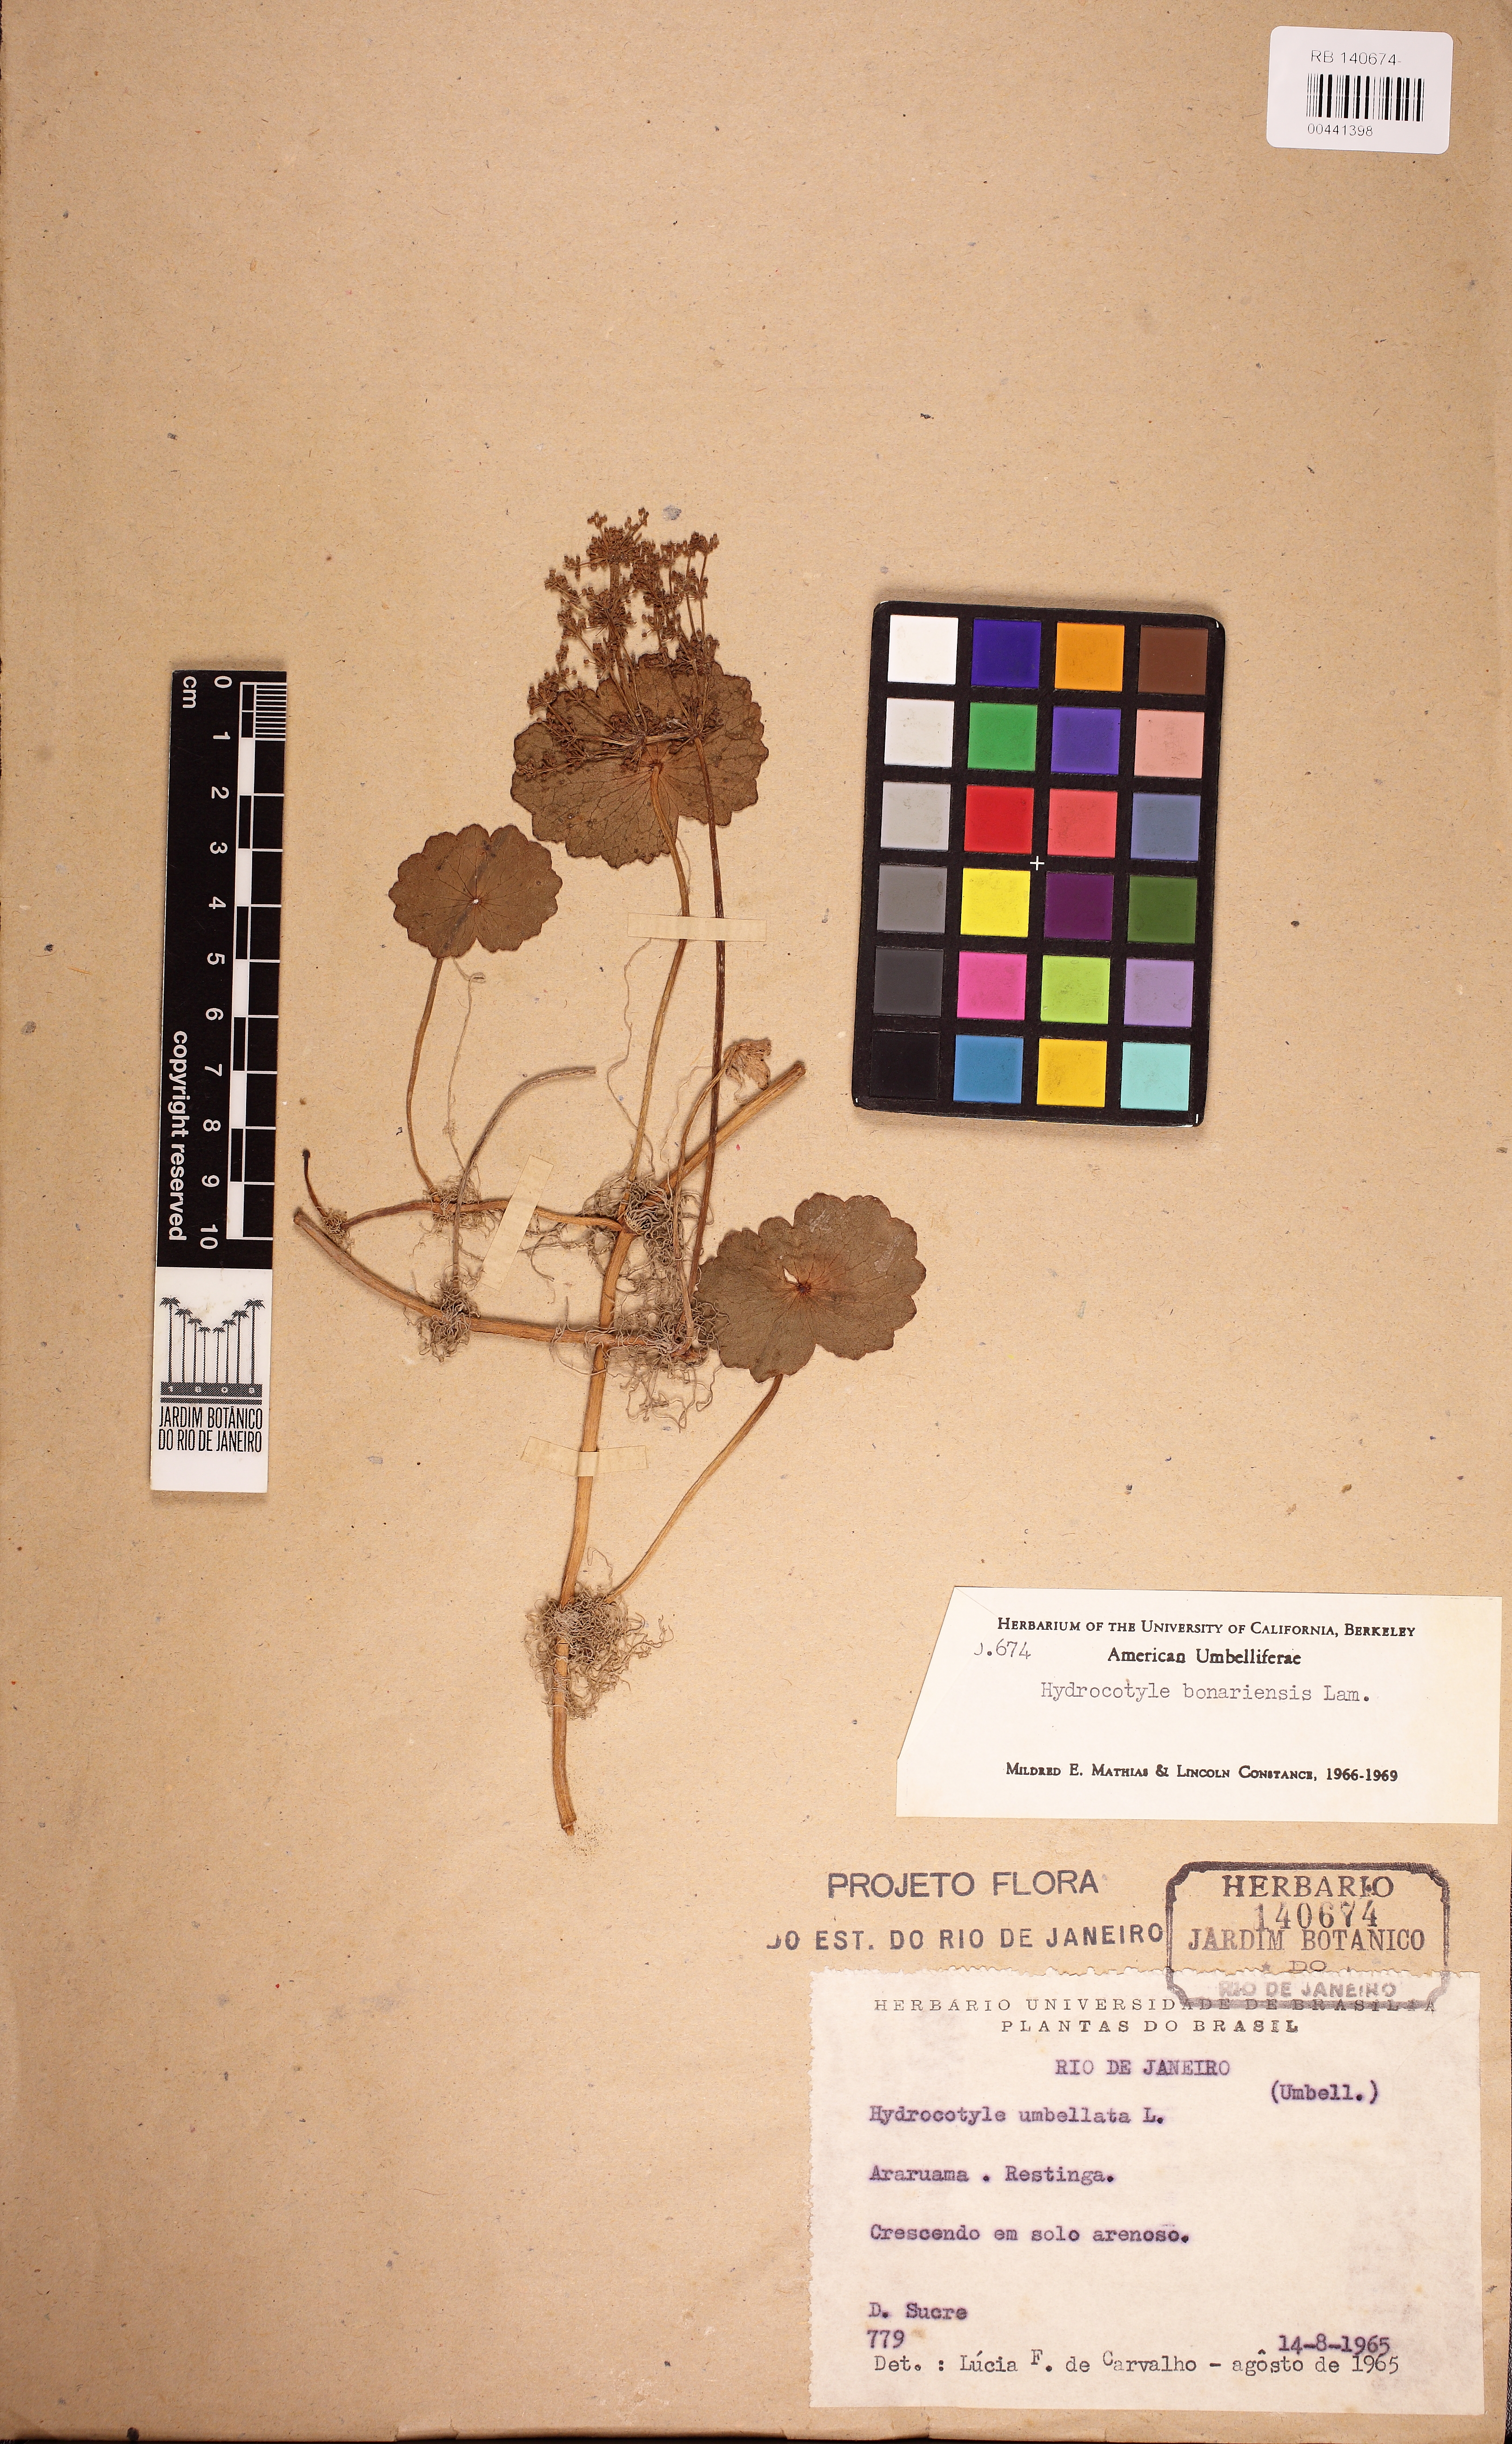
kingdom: Plantae
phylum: Tracheophyta
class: Magnoliopsida
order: Apiales
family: Araliaceae
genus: Hydrocotyle
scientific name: Hydrocotyle bonariensis
